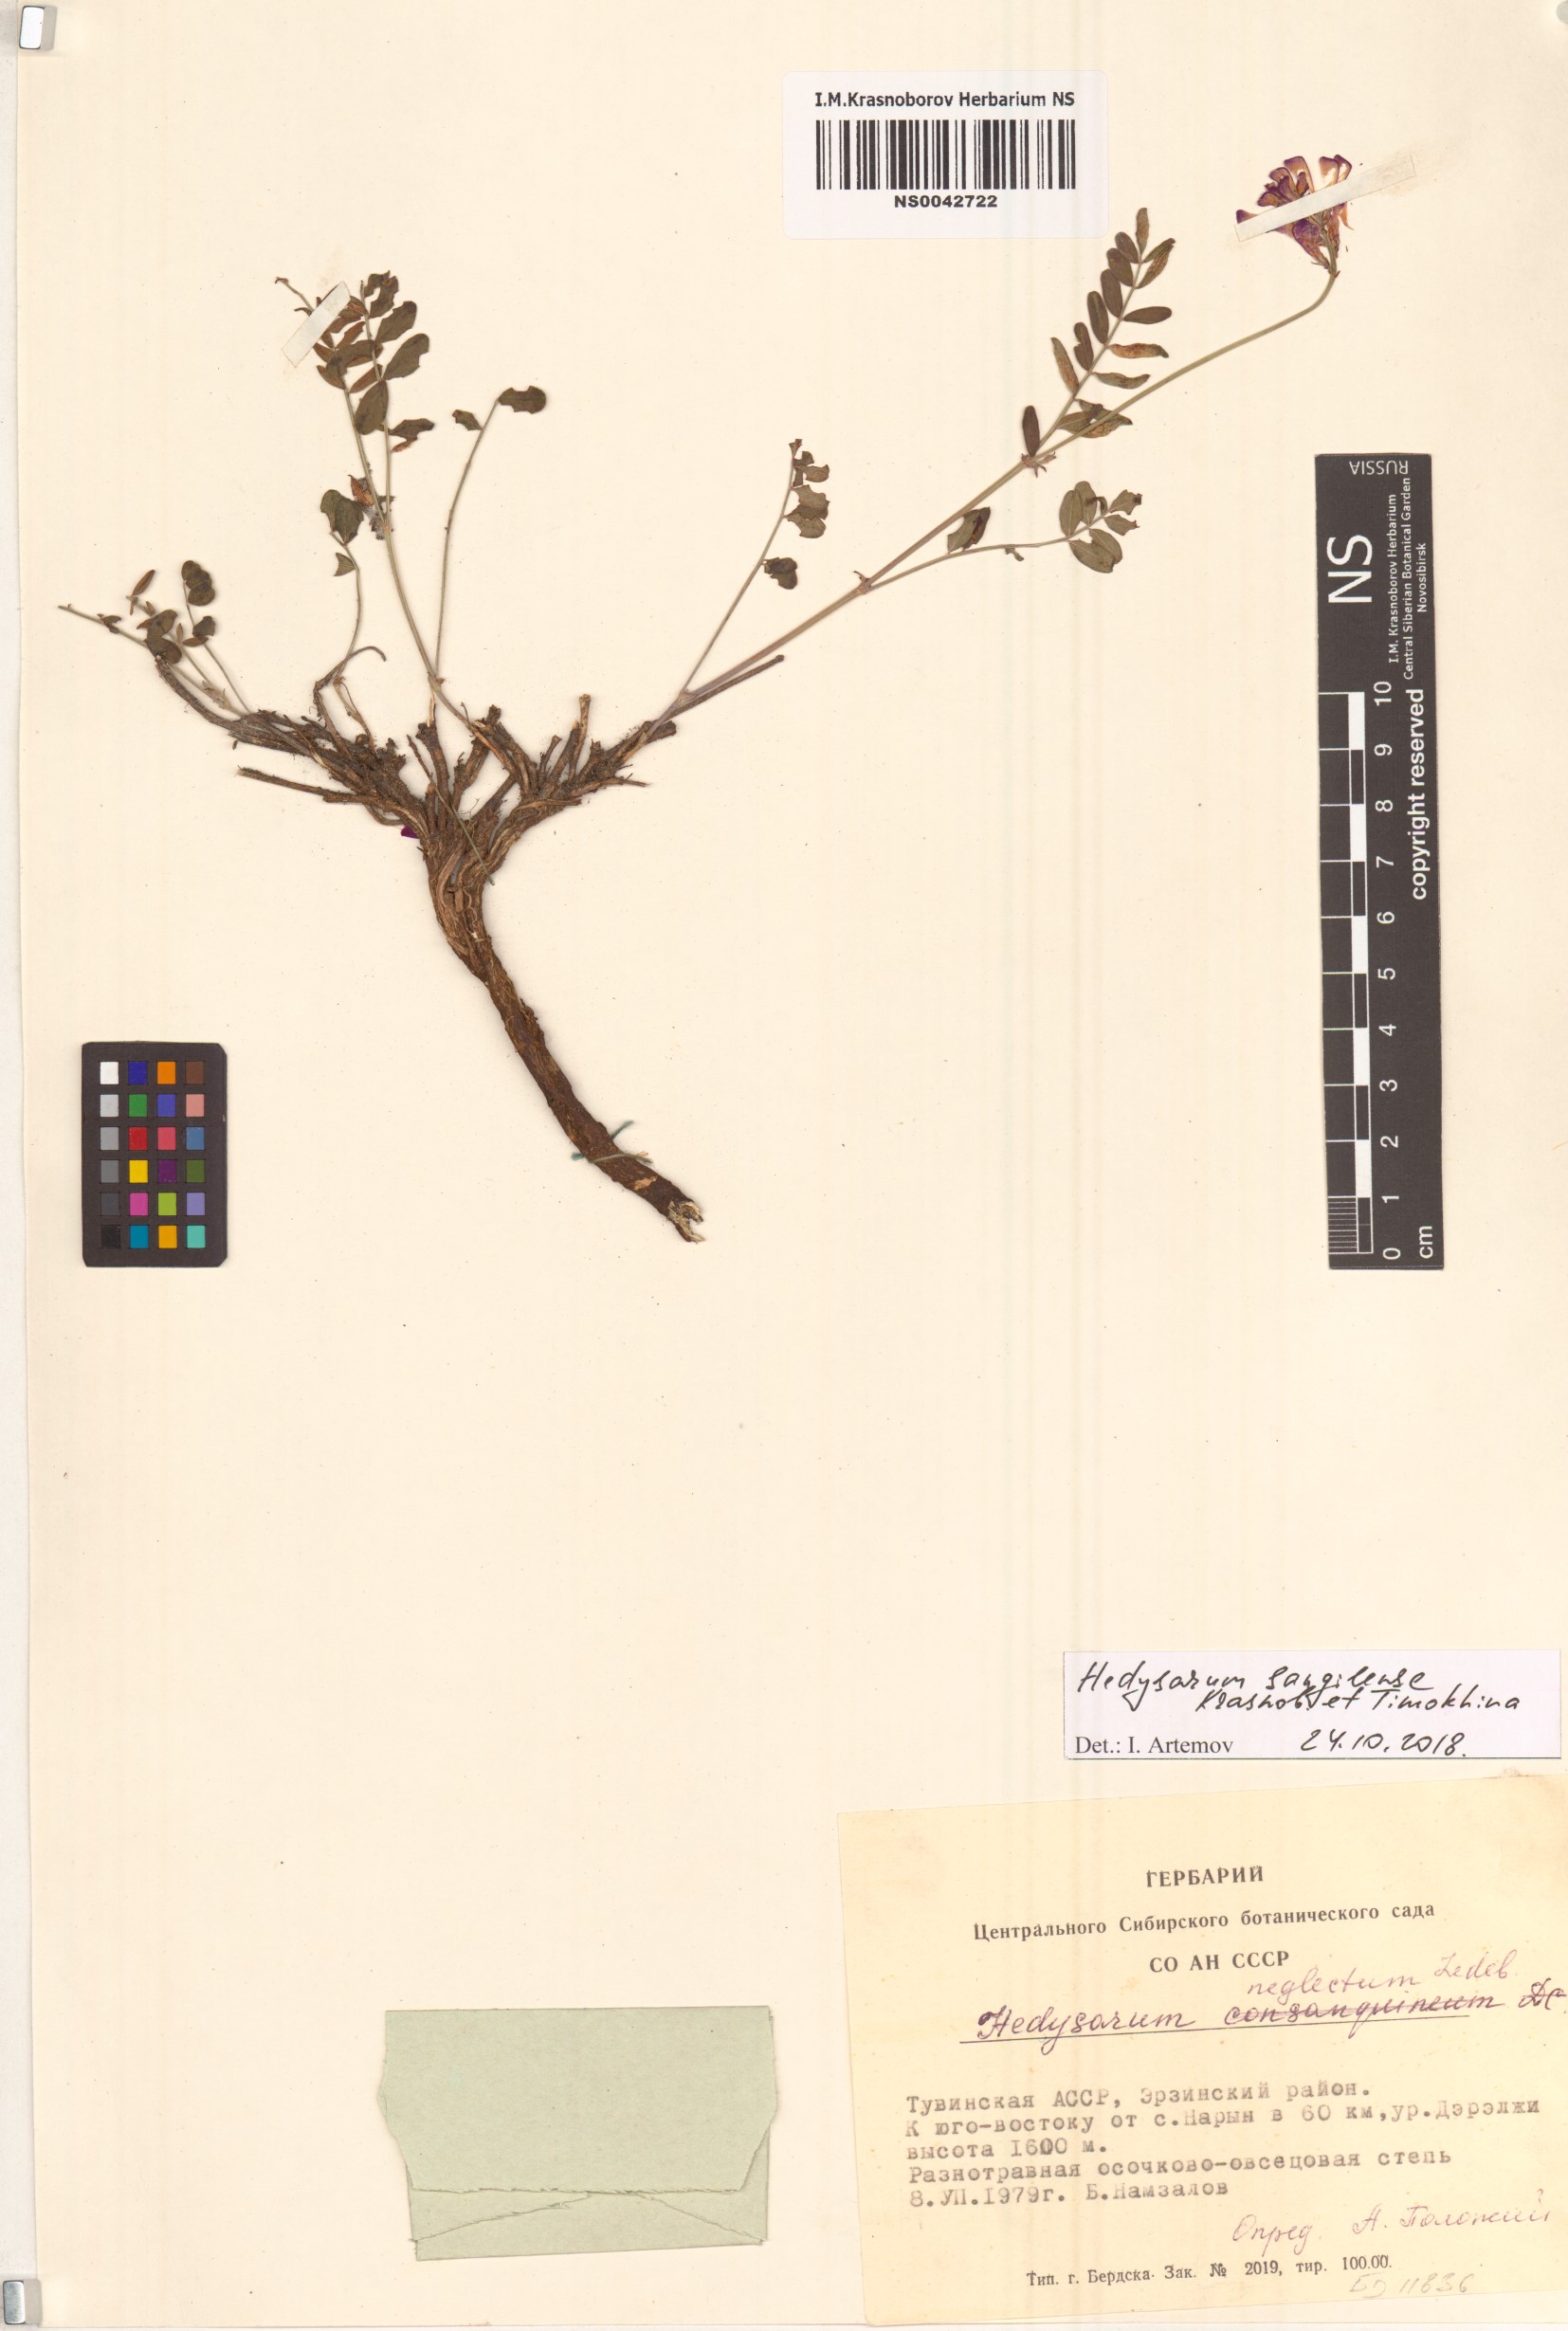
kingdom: Plantae
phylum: Tracheophyta
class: Magnoliopsida
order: Fabales
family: Fabaceae
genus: Hedysarum
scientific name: Hedysarum sangilense
